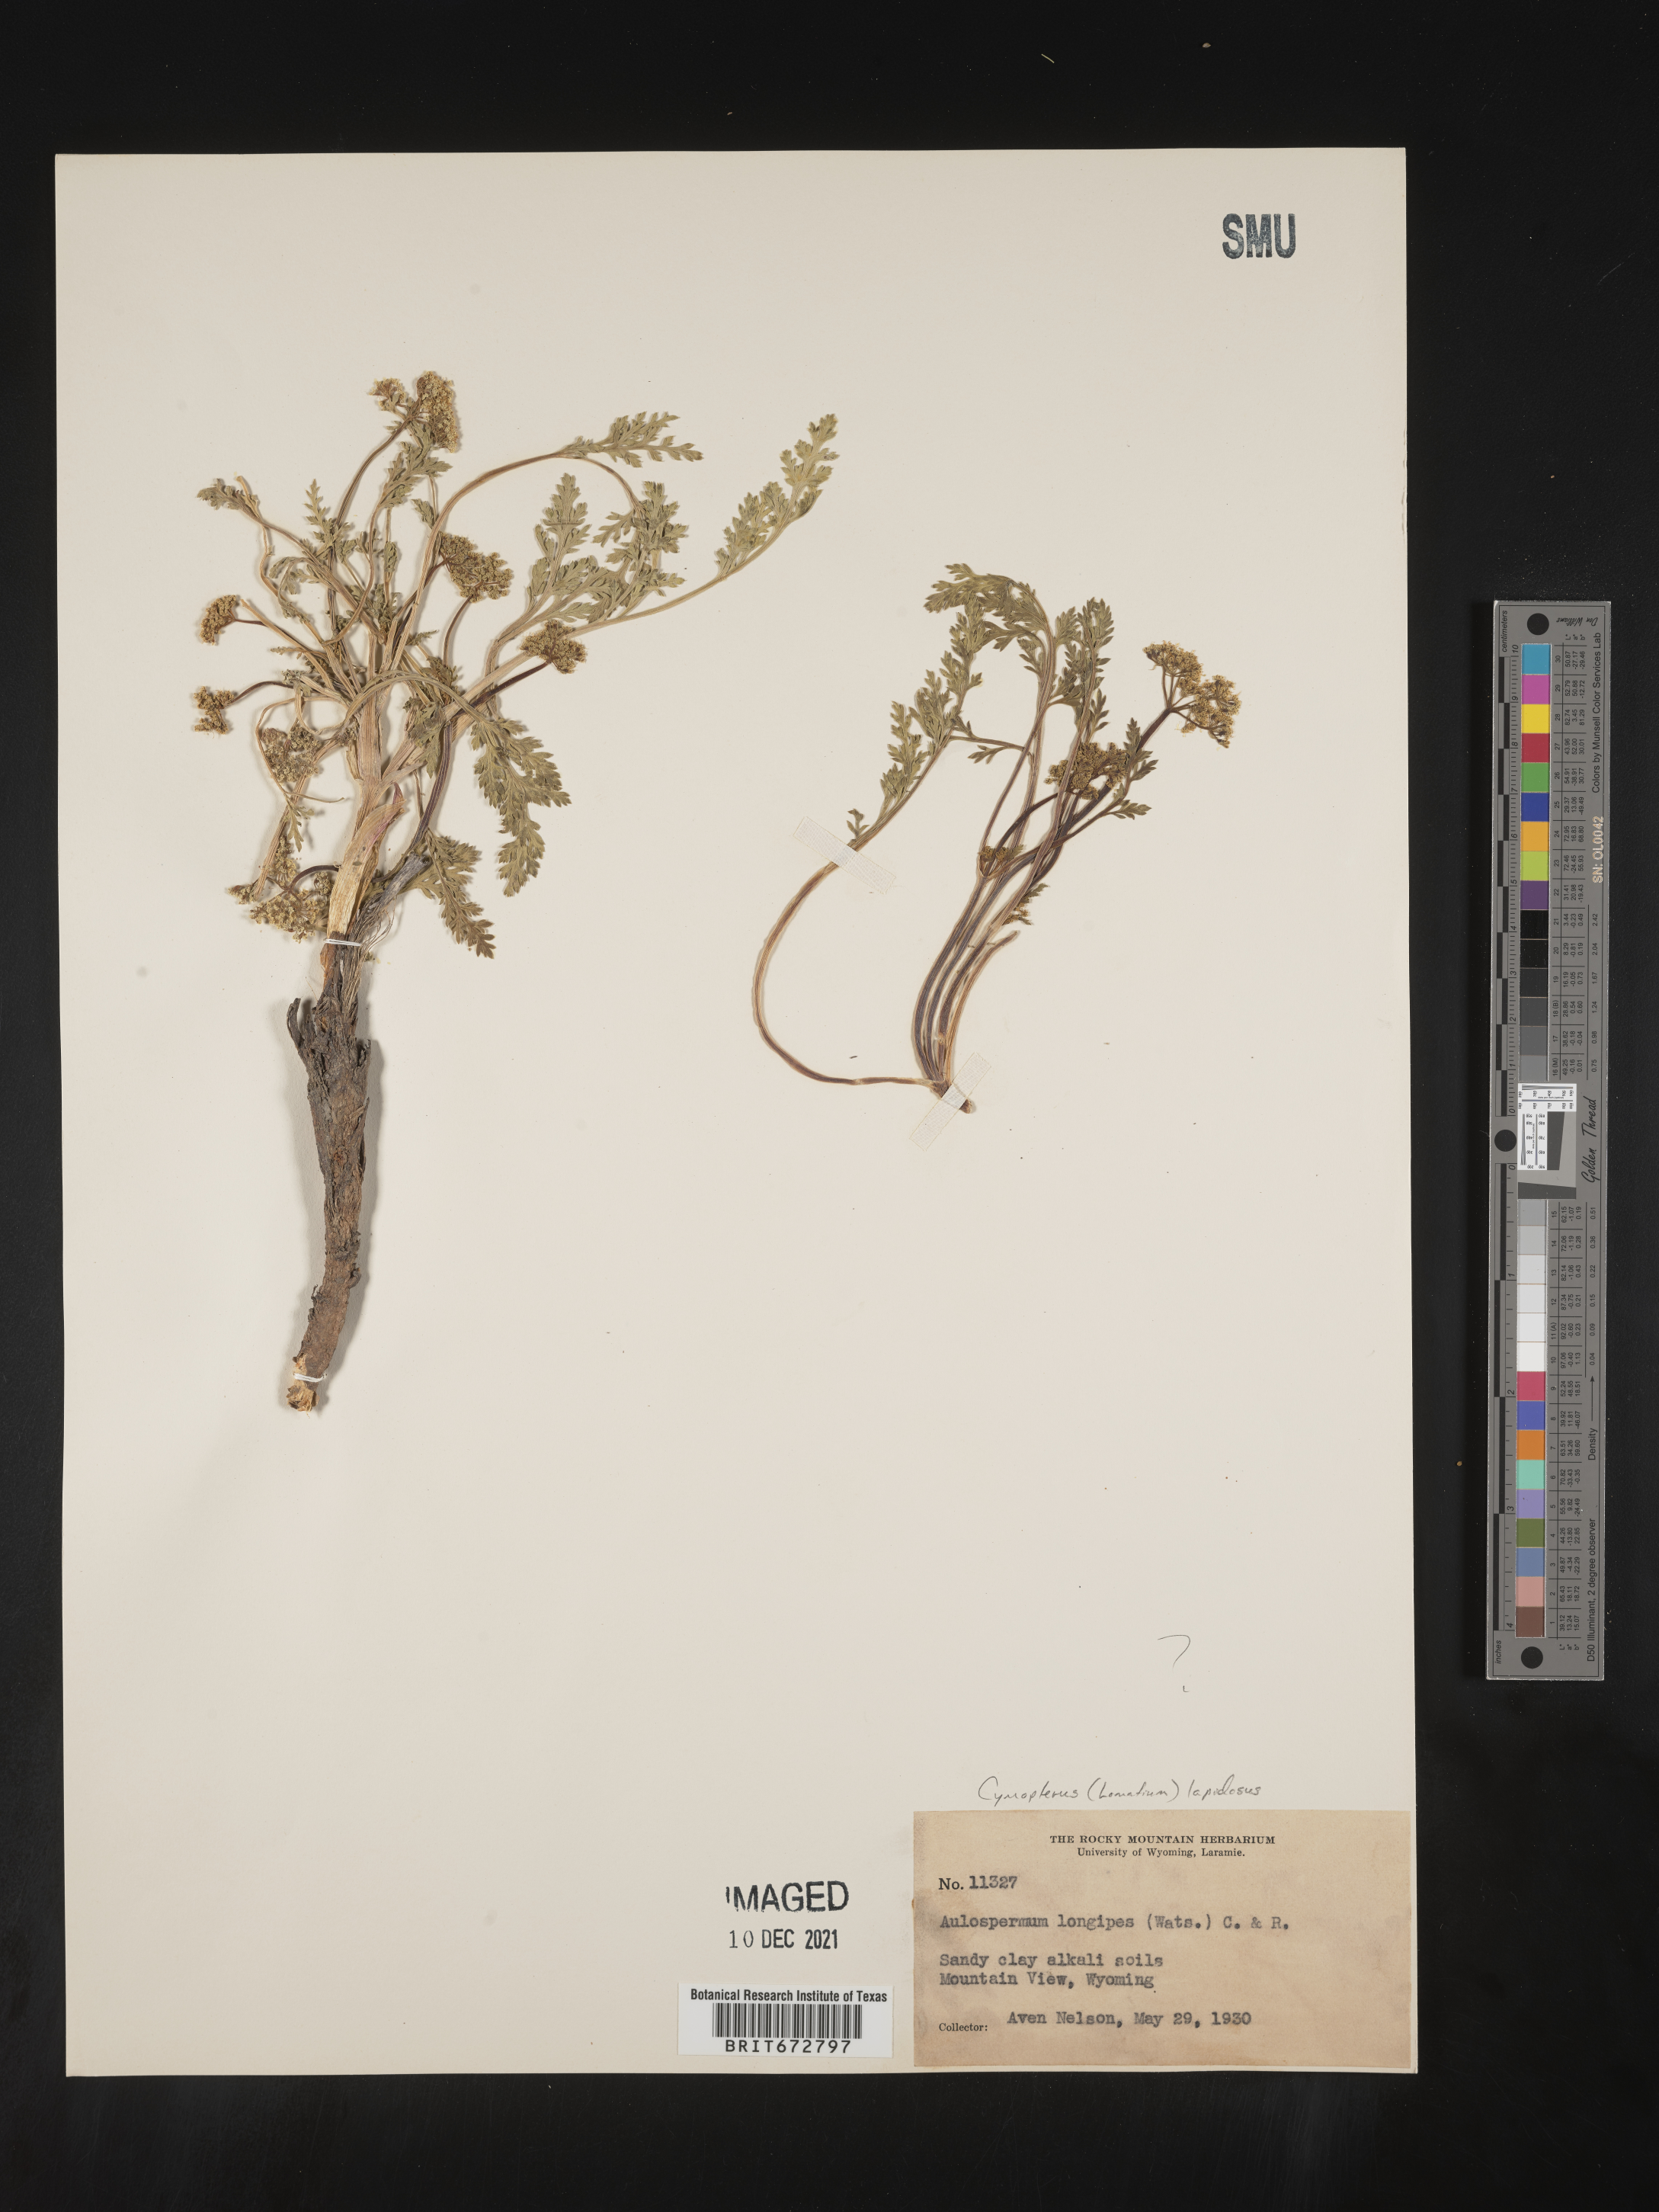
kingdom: Plantae
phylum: Tracheophyta
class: Magnoliopsida
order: Apiales
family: Apiaceae
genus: Cymopterus
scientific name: Cymopterus lapidosus
